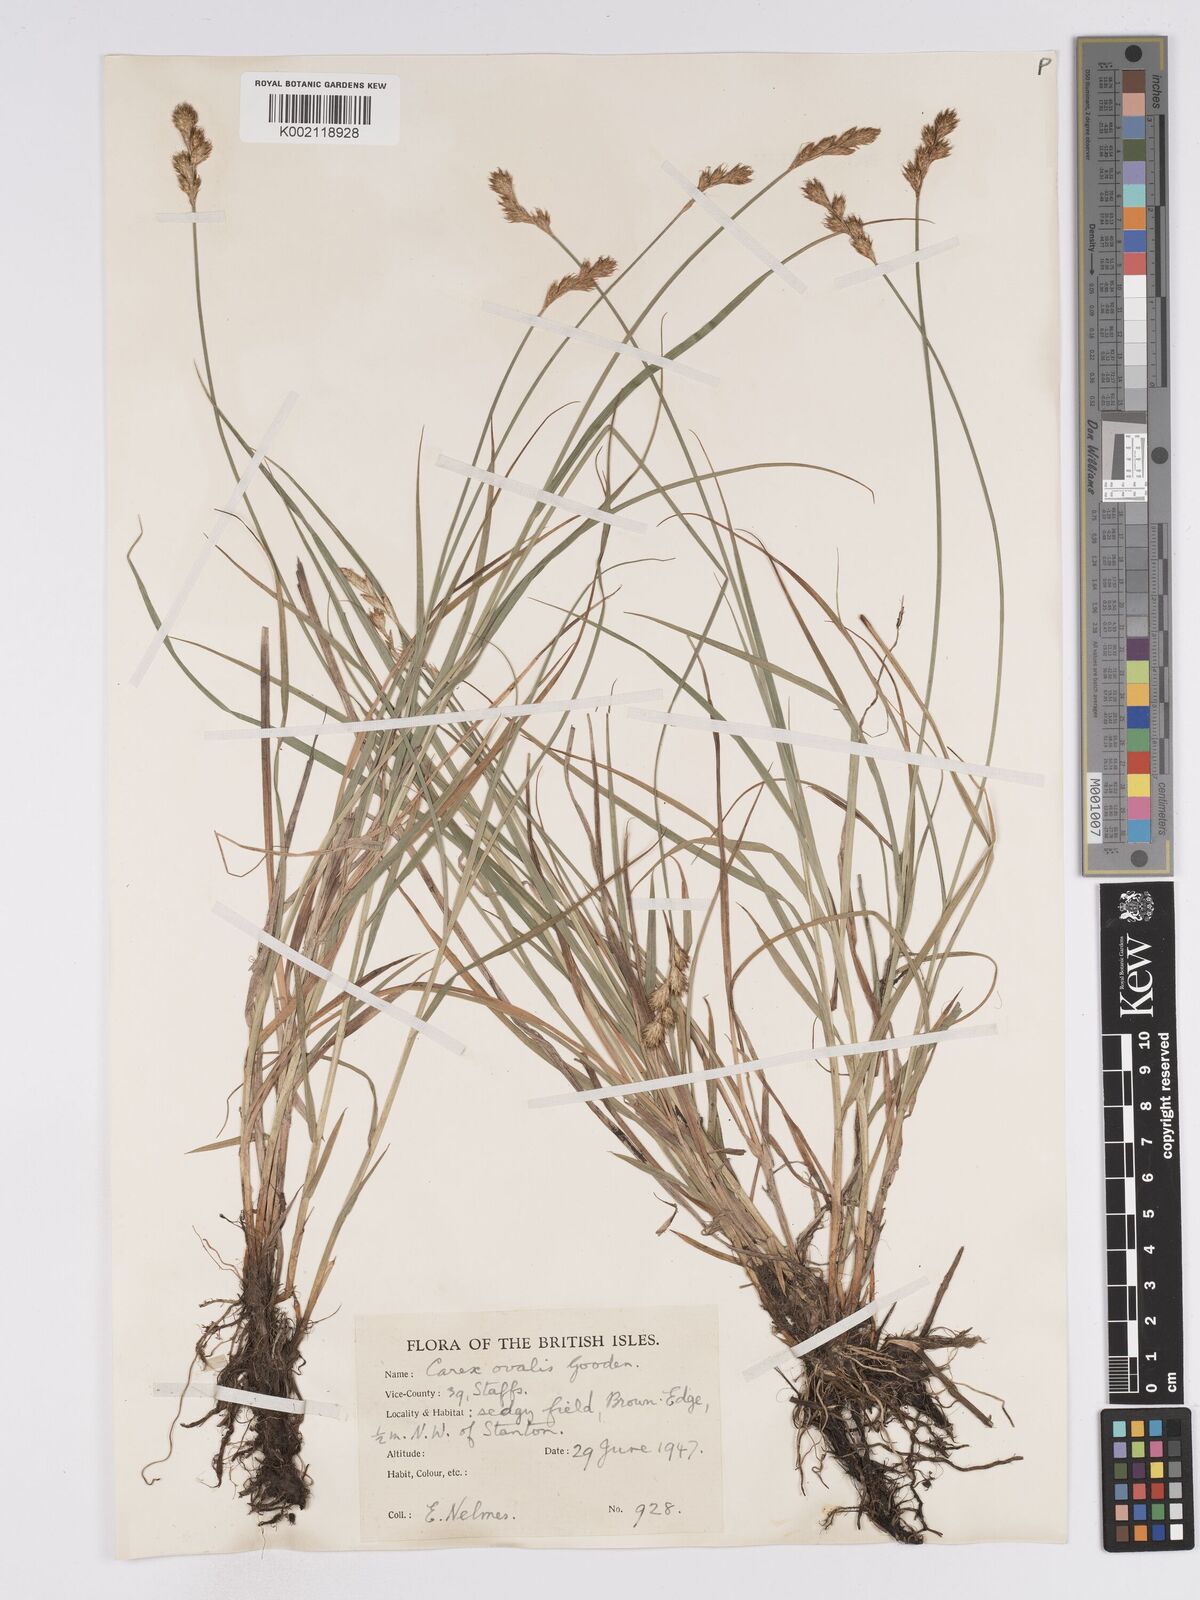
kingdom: Plantae
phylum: Tracheophyta
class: Liliopsida
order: Poales
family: Cyperaceae
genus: Carex
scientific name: Carex leporina
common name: Oval sedge
